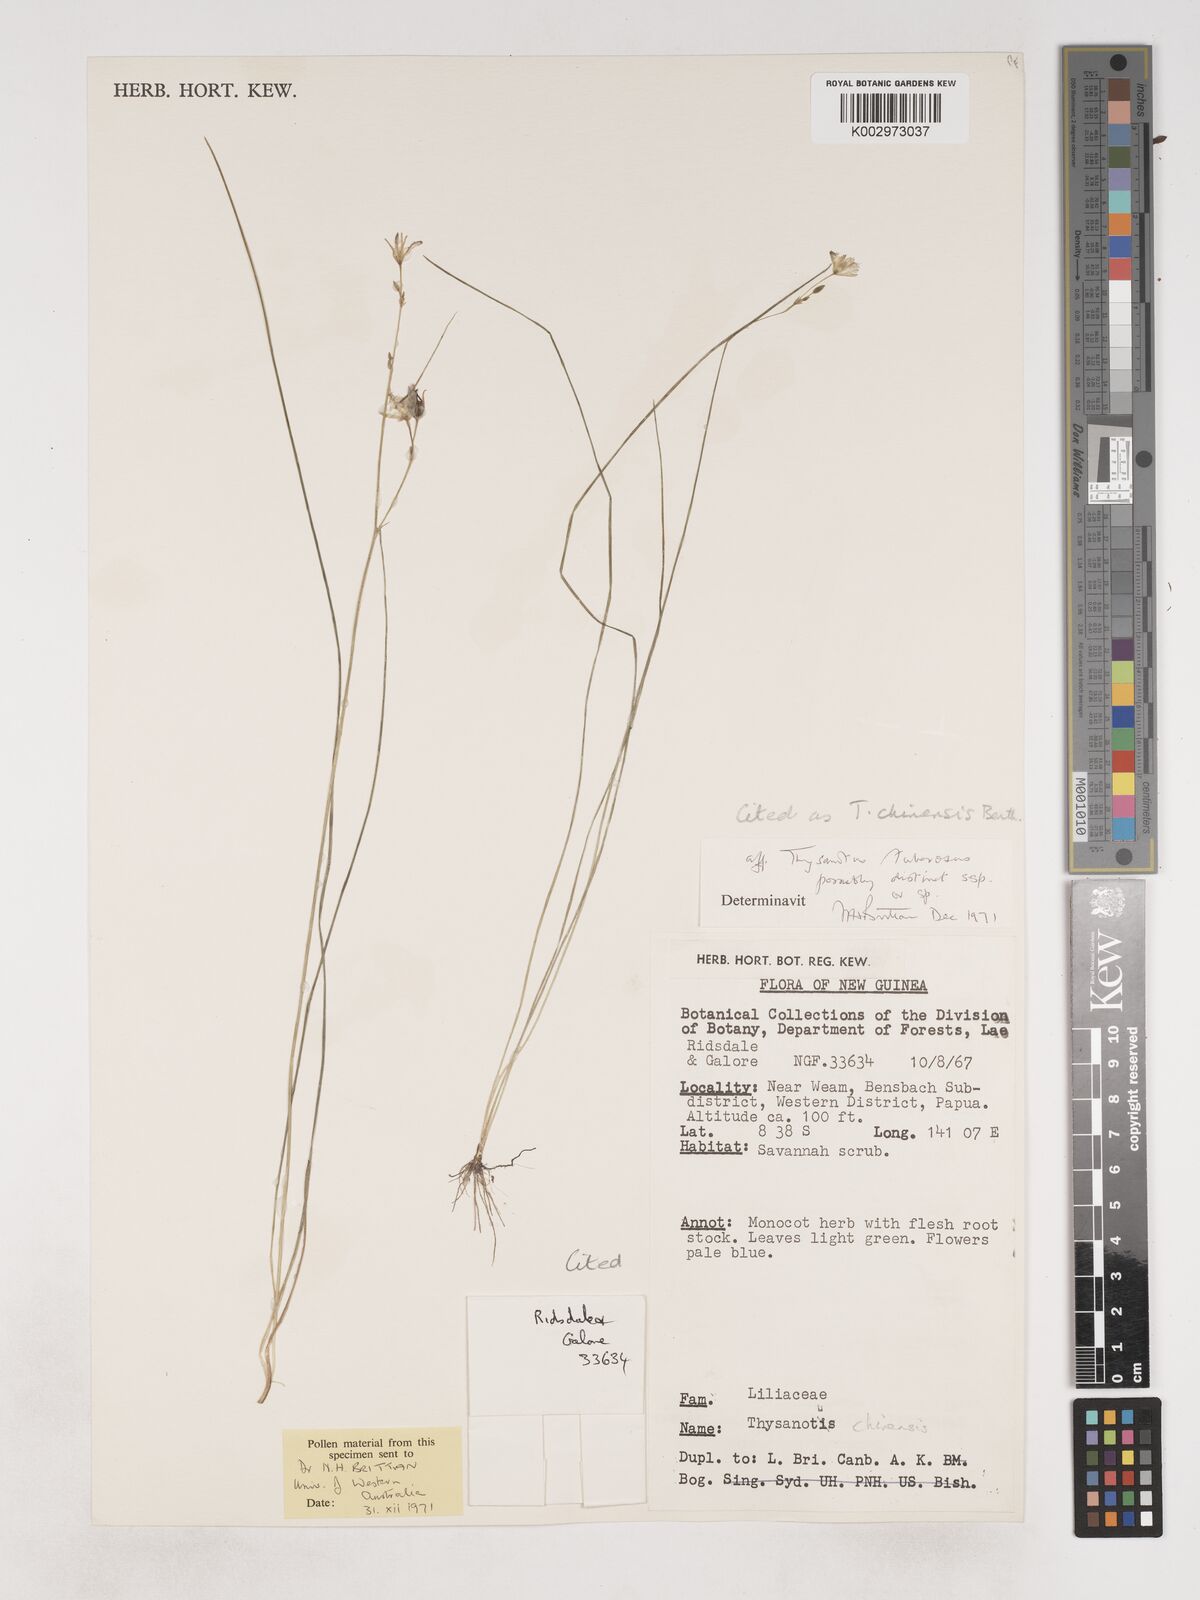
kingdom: Plantae
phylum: Tracheophyta
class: Liliopsida
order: Asparagales
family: Asparagaceae
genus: Thysanotus
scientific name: Thysanotus chinensis
